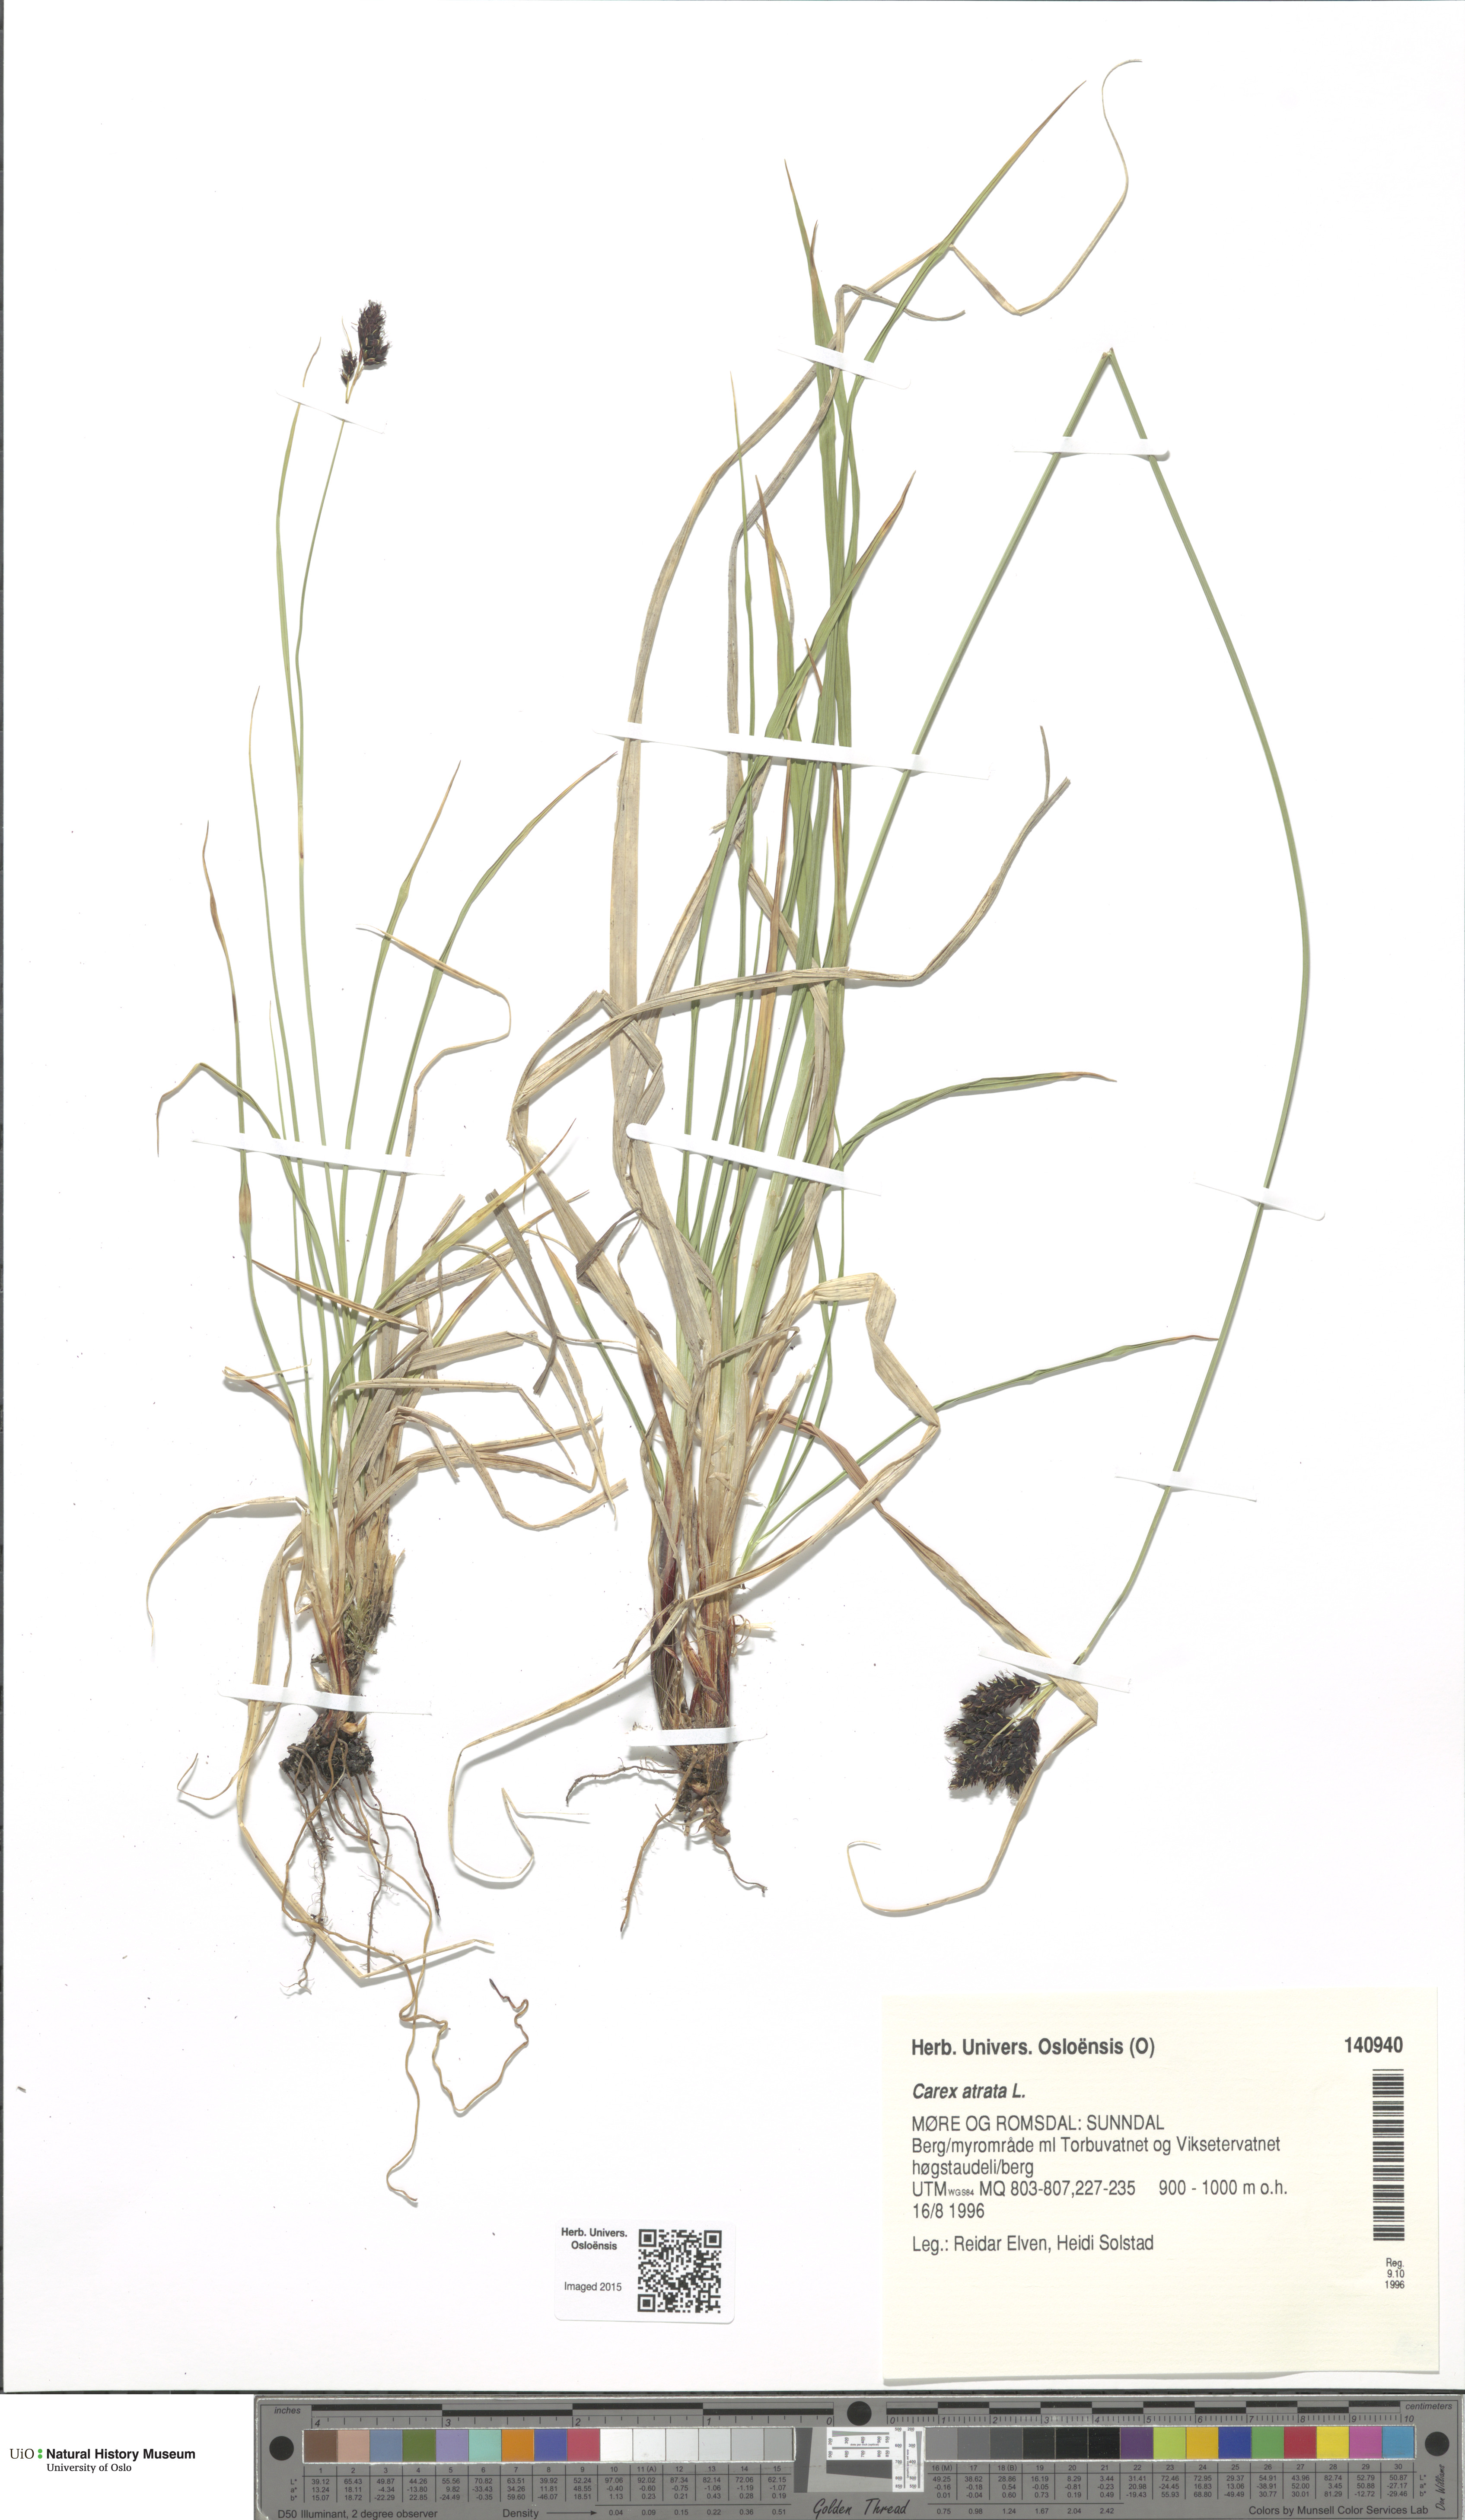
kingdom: Plantae
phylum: Tracheophyta
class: Liliopsida
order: Poales
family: Cyperaceae
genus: Carex
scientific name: Carex atrata
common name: Black alpine sedge
